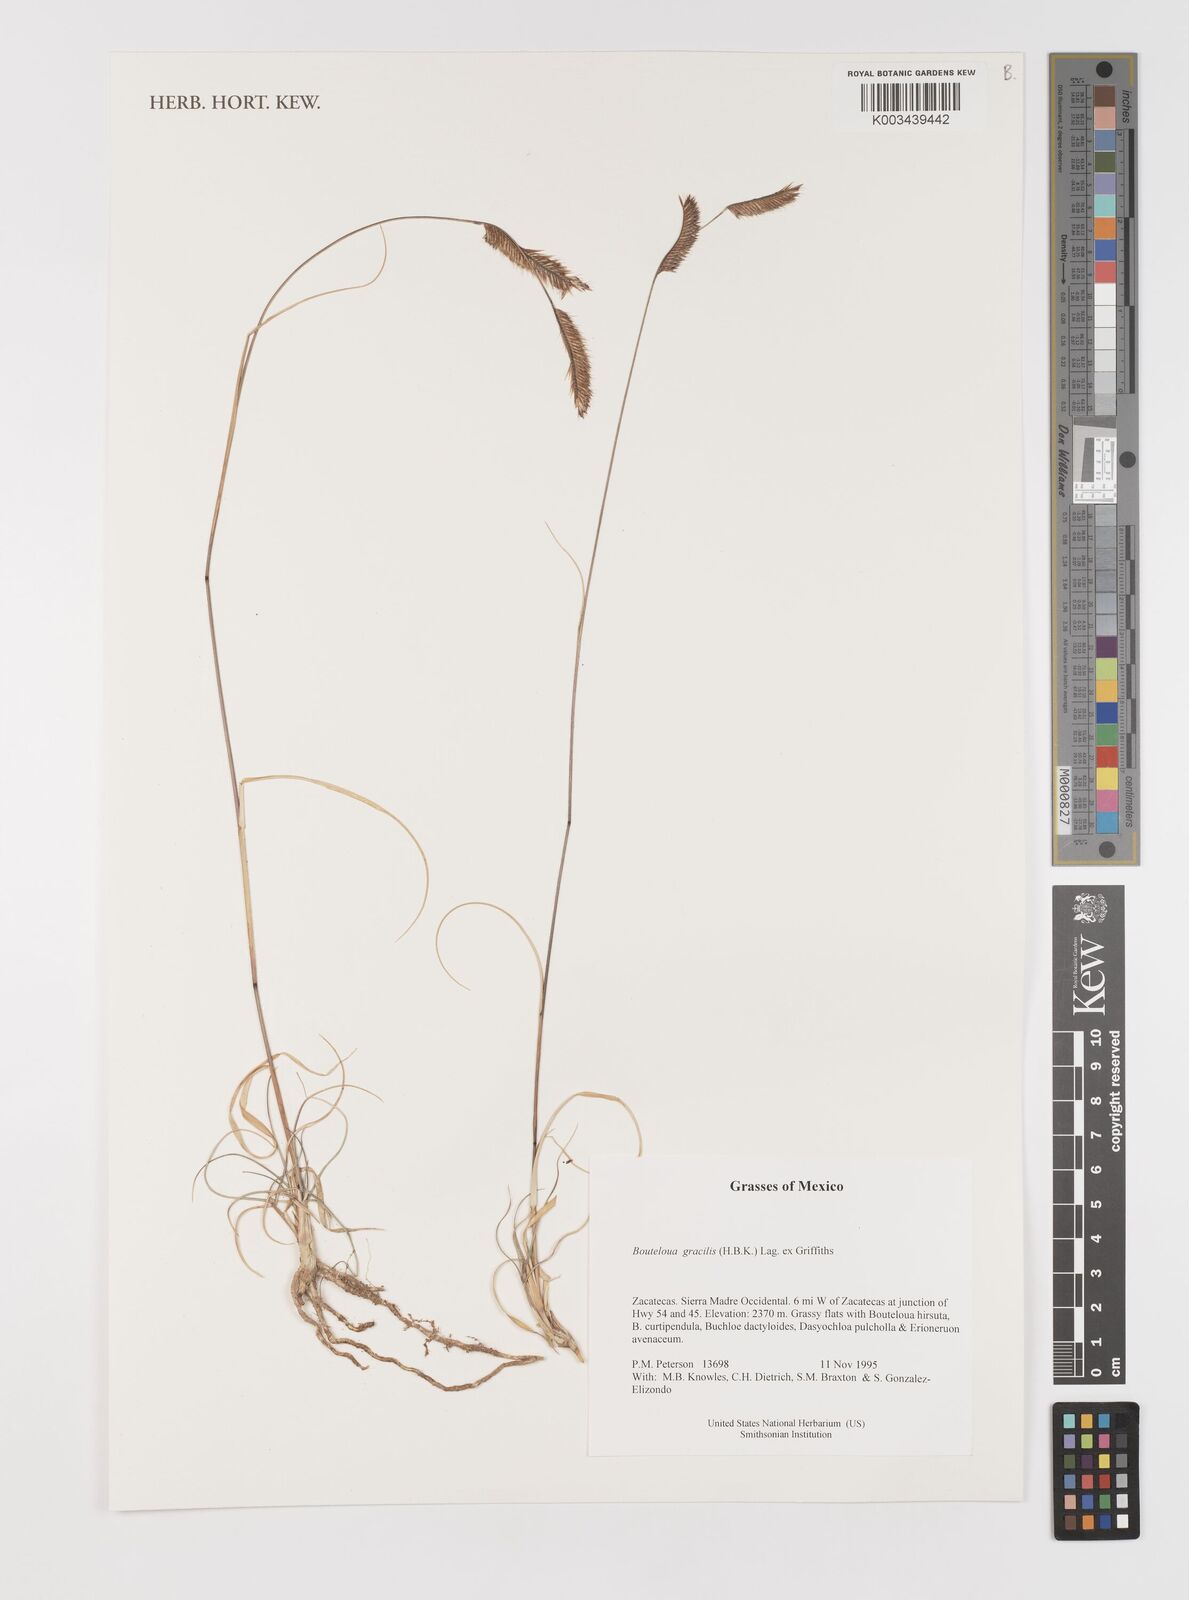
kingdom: Plantae
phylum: Tracheophyta
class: Liliopsida
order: Poales
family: Poaceae
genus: Bouteloua
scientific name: Bouteloua aristidoides
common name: Needle grama
